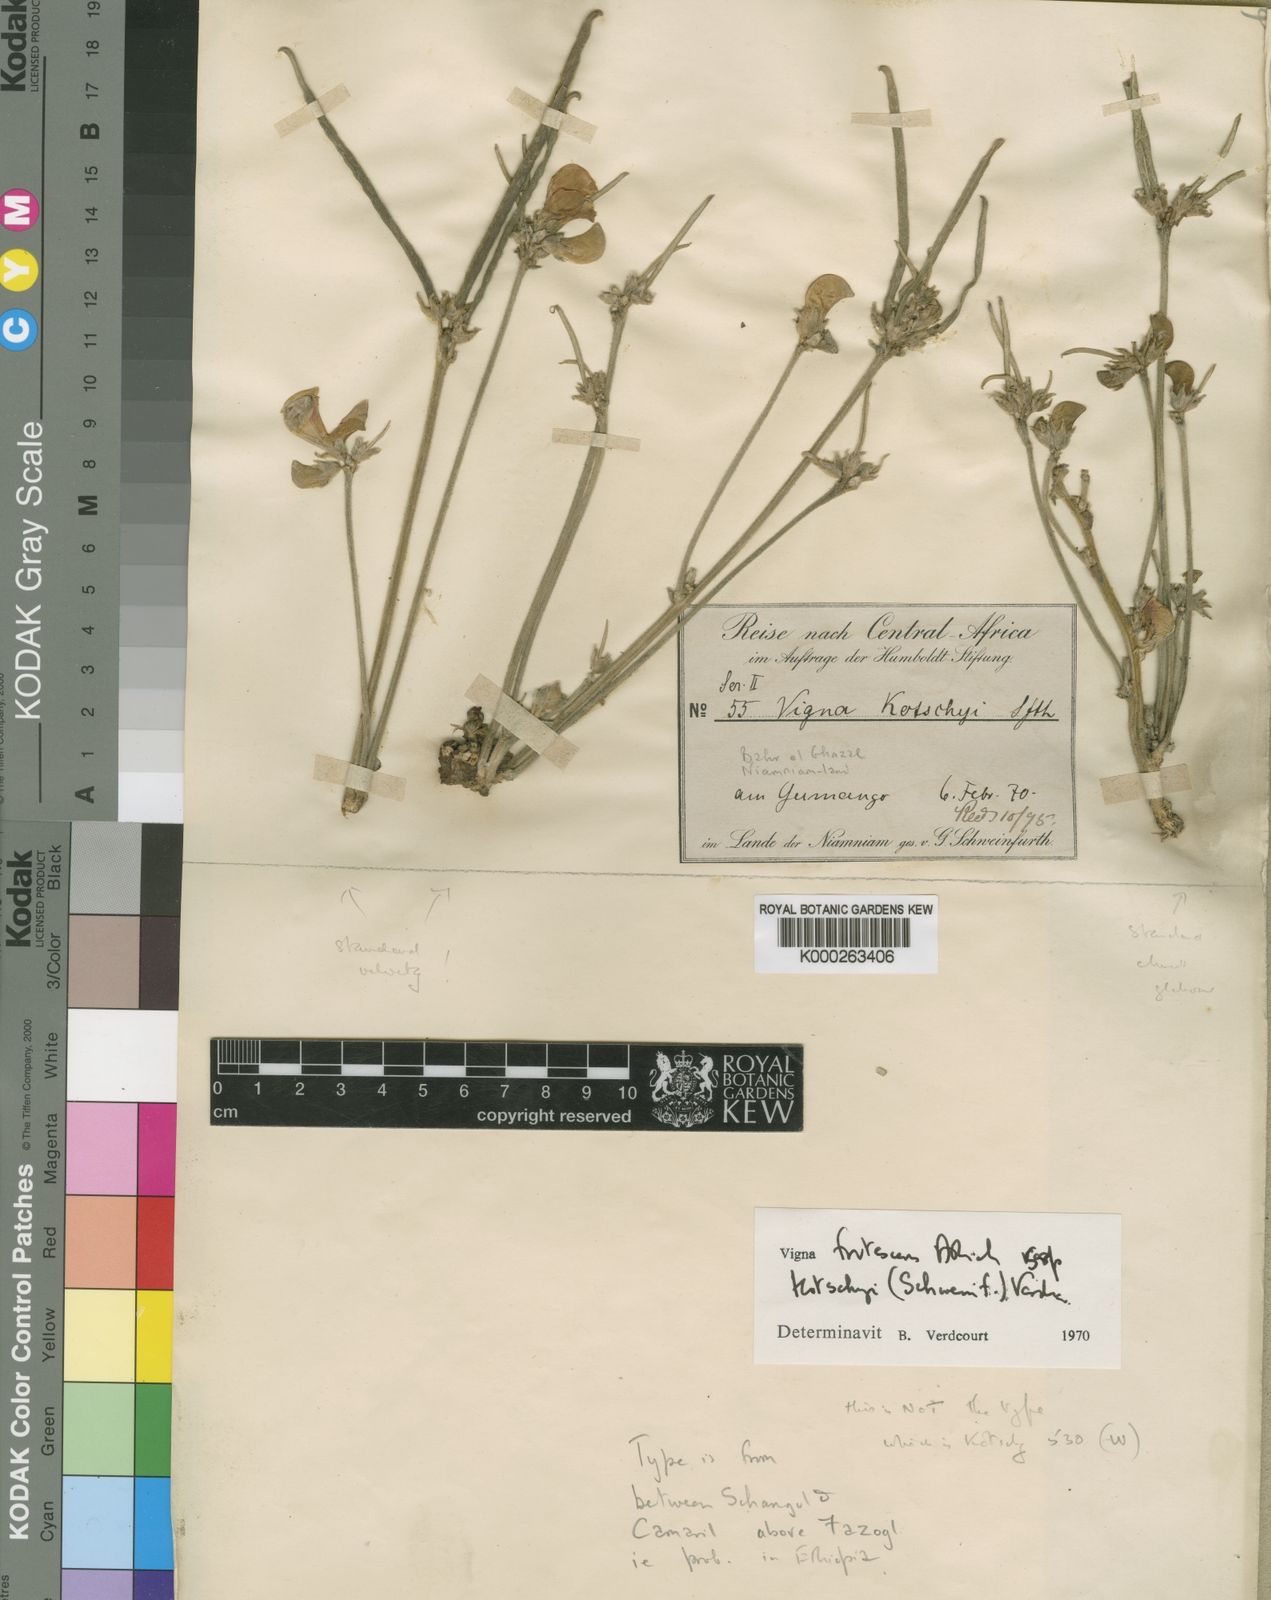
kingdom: Plantae
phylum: Tracheophyta
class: Magnoliopsida
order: Fabales
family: Fabaceae
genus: Vigna
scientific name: Vigna
